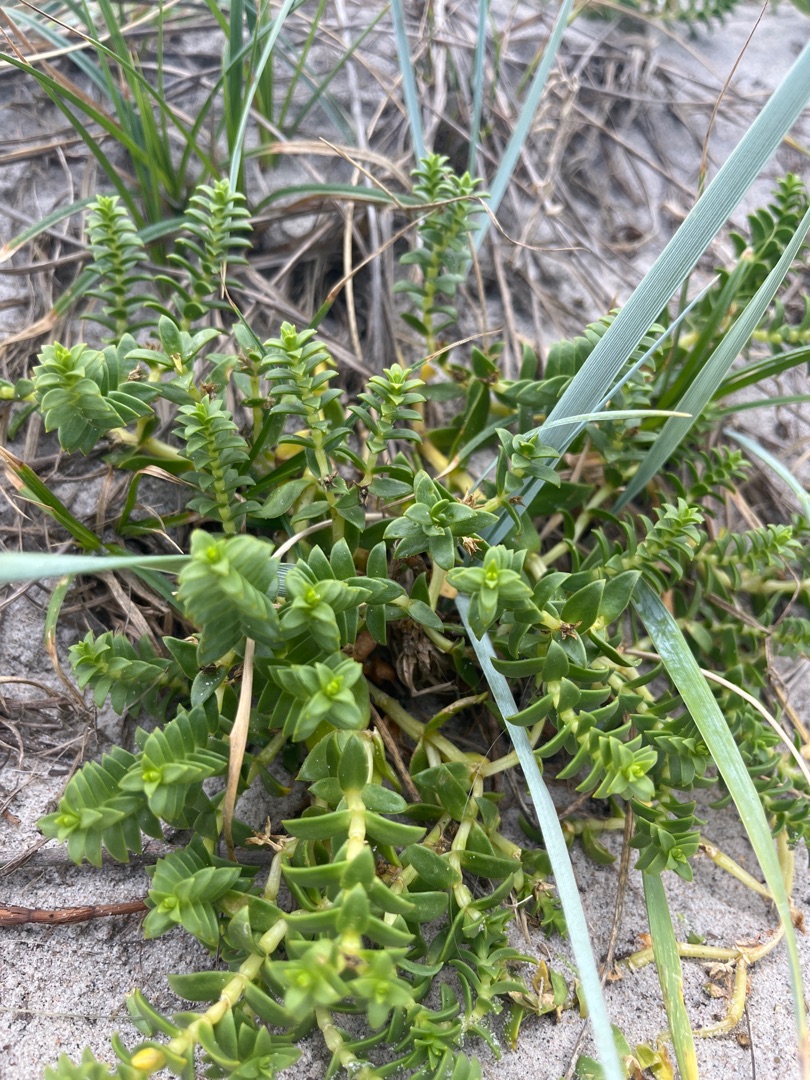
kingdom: Plantae
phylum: Tracheophyta
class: Magnoliopsida
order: Caryophyllales
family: Caryophyllaceae
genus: Honckenya
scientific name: Honckenya peploides
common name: Strandarve
